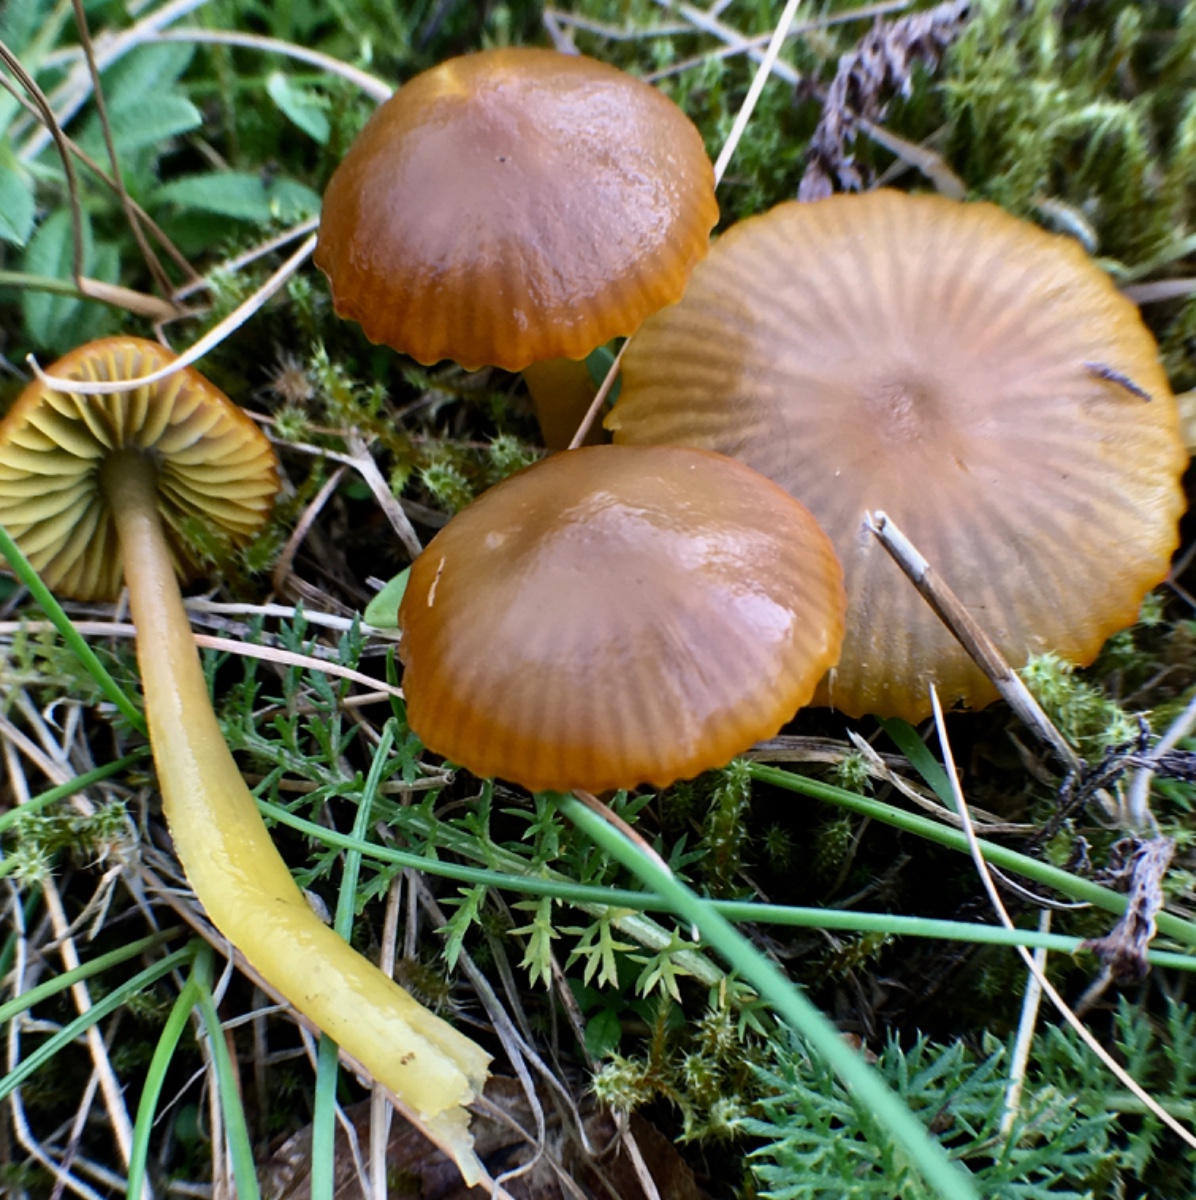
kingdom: Fungi
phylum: Basidiomycota
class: Agaricomycetes
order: Agaricales
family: Hygrophoraceae
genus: Gliophorus
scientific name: Gliophorus psittacinus
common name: papegøje-vokshat
